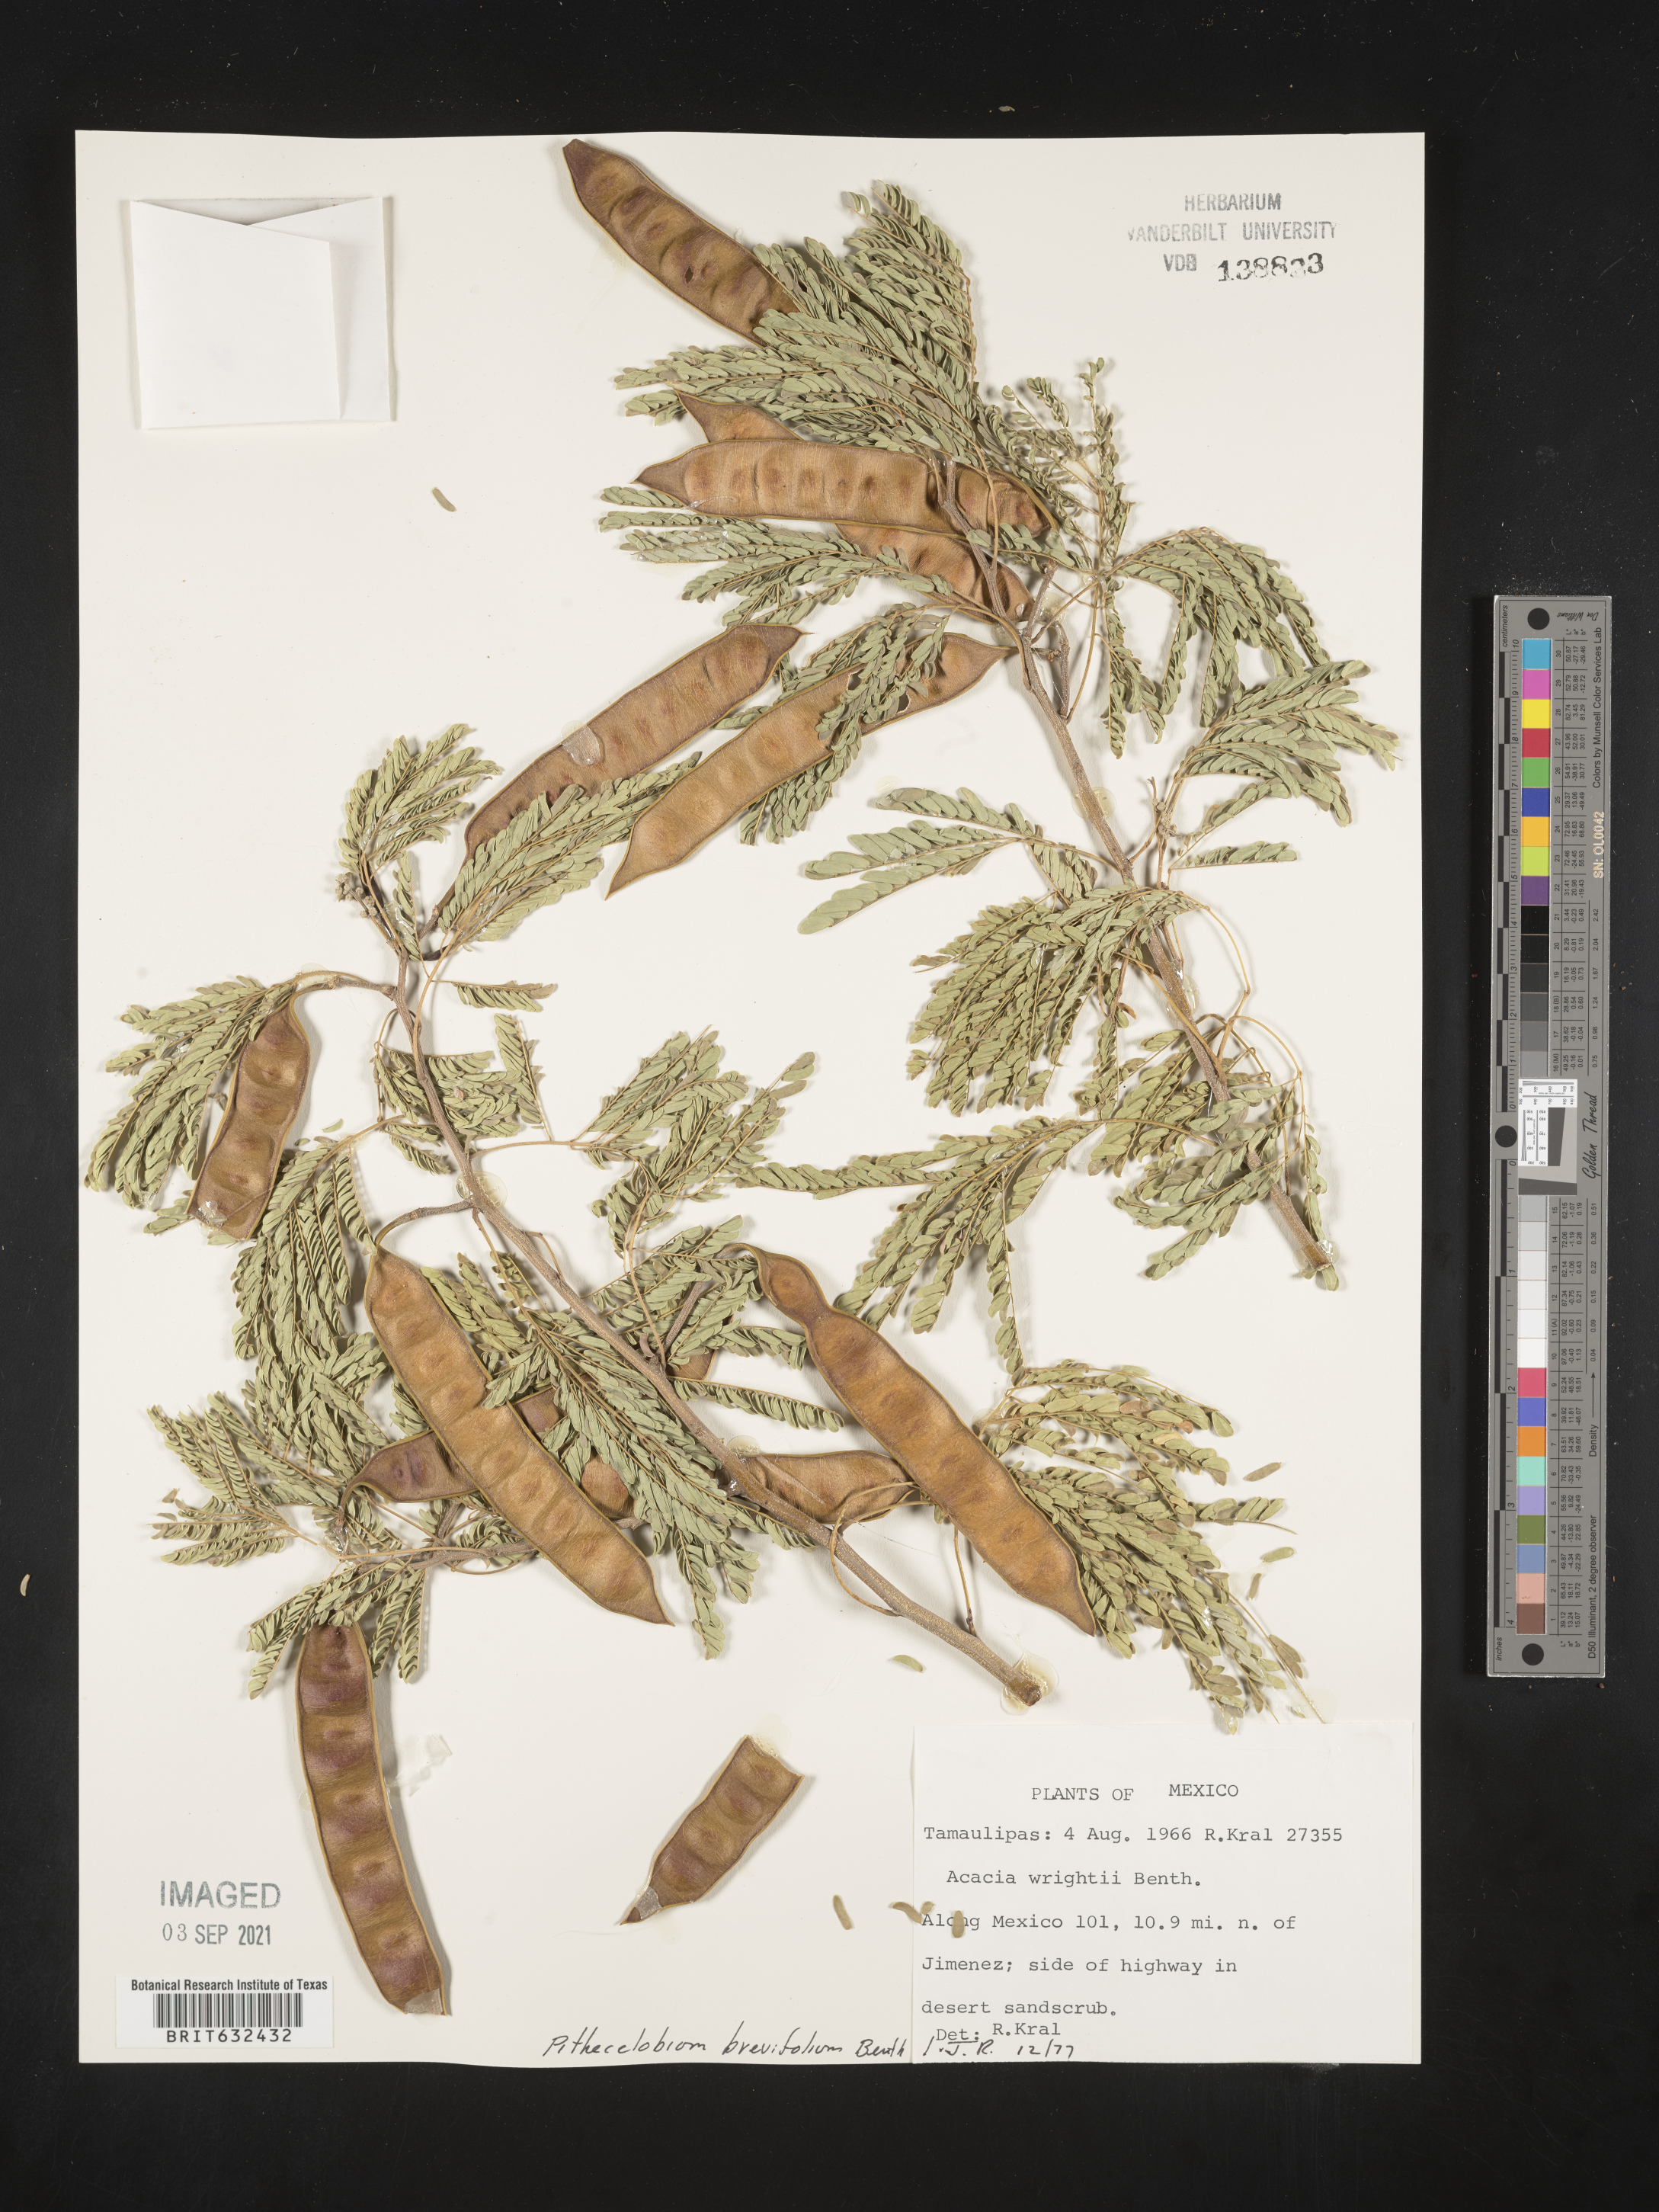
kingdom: Plantae
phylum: Tracheophyta
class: Magnoliopsida
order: Fabales
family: Fabaceae
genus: Pithecellobium
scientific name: Pithecellobium
